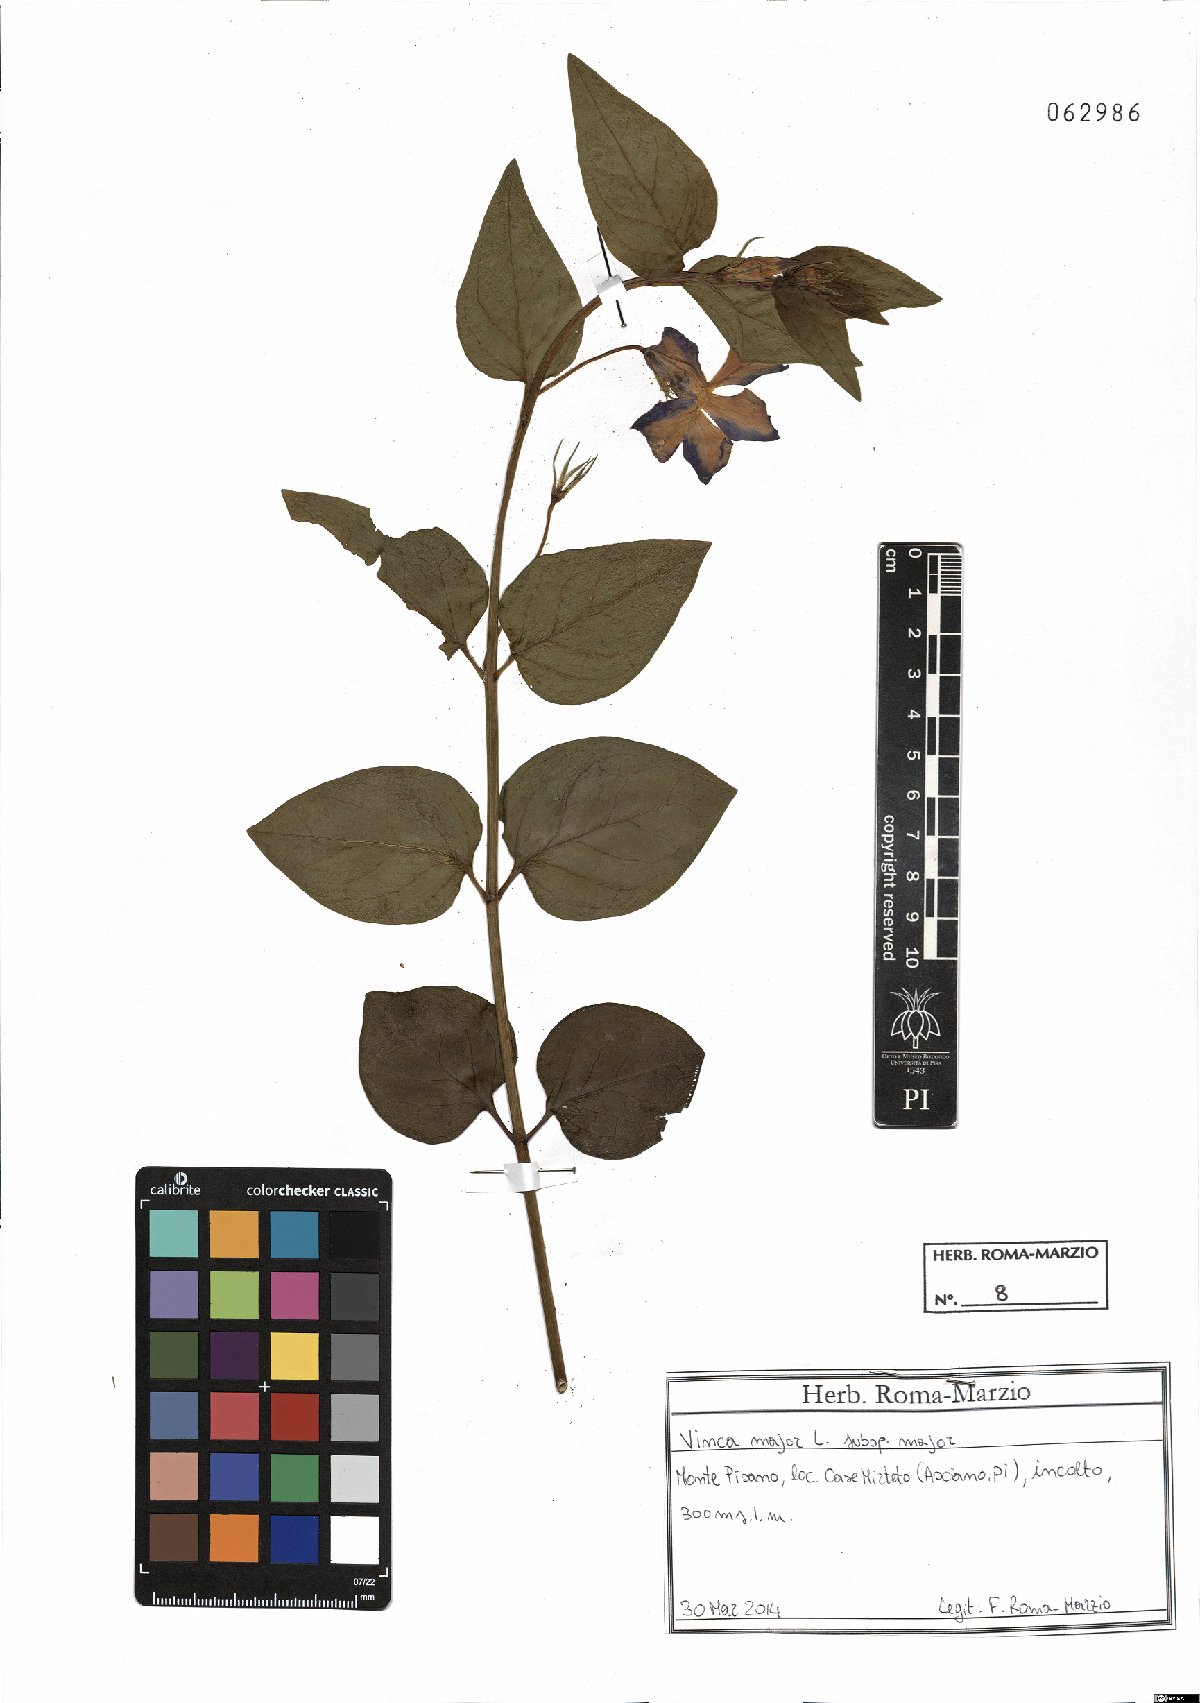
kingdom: Plantae
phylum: Tracheophyta
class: Magnoliopsida
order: Gentianales
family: Apocynaceae
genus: Vinca
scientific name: Vinca major
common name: Greater periwinkle
